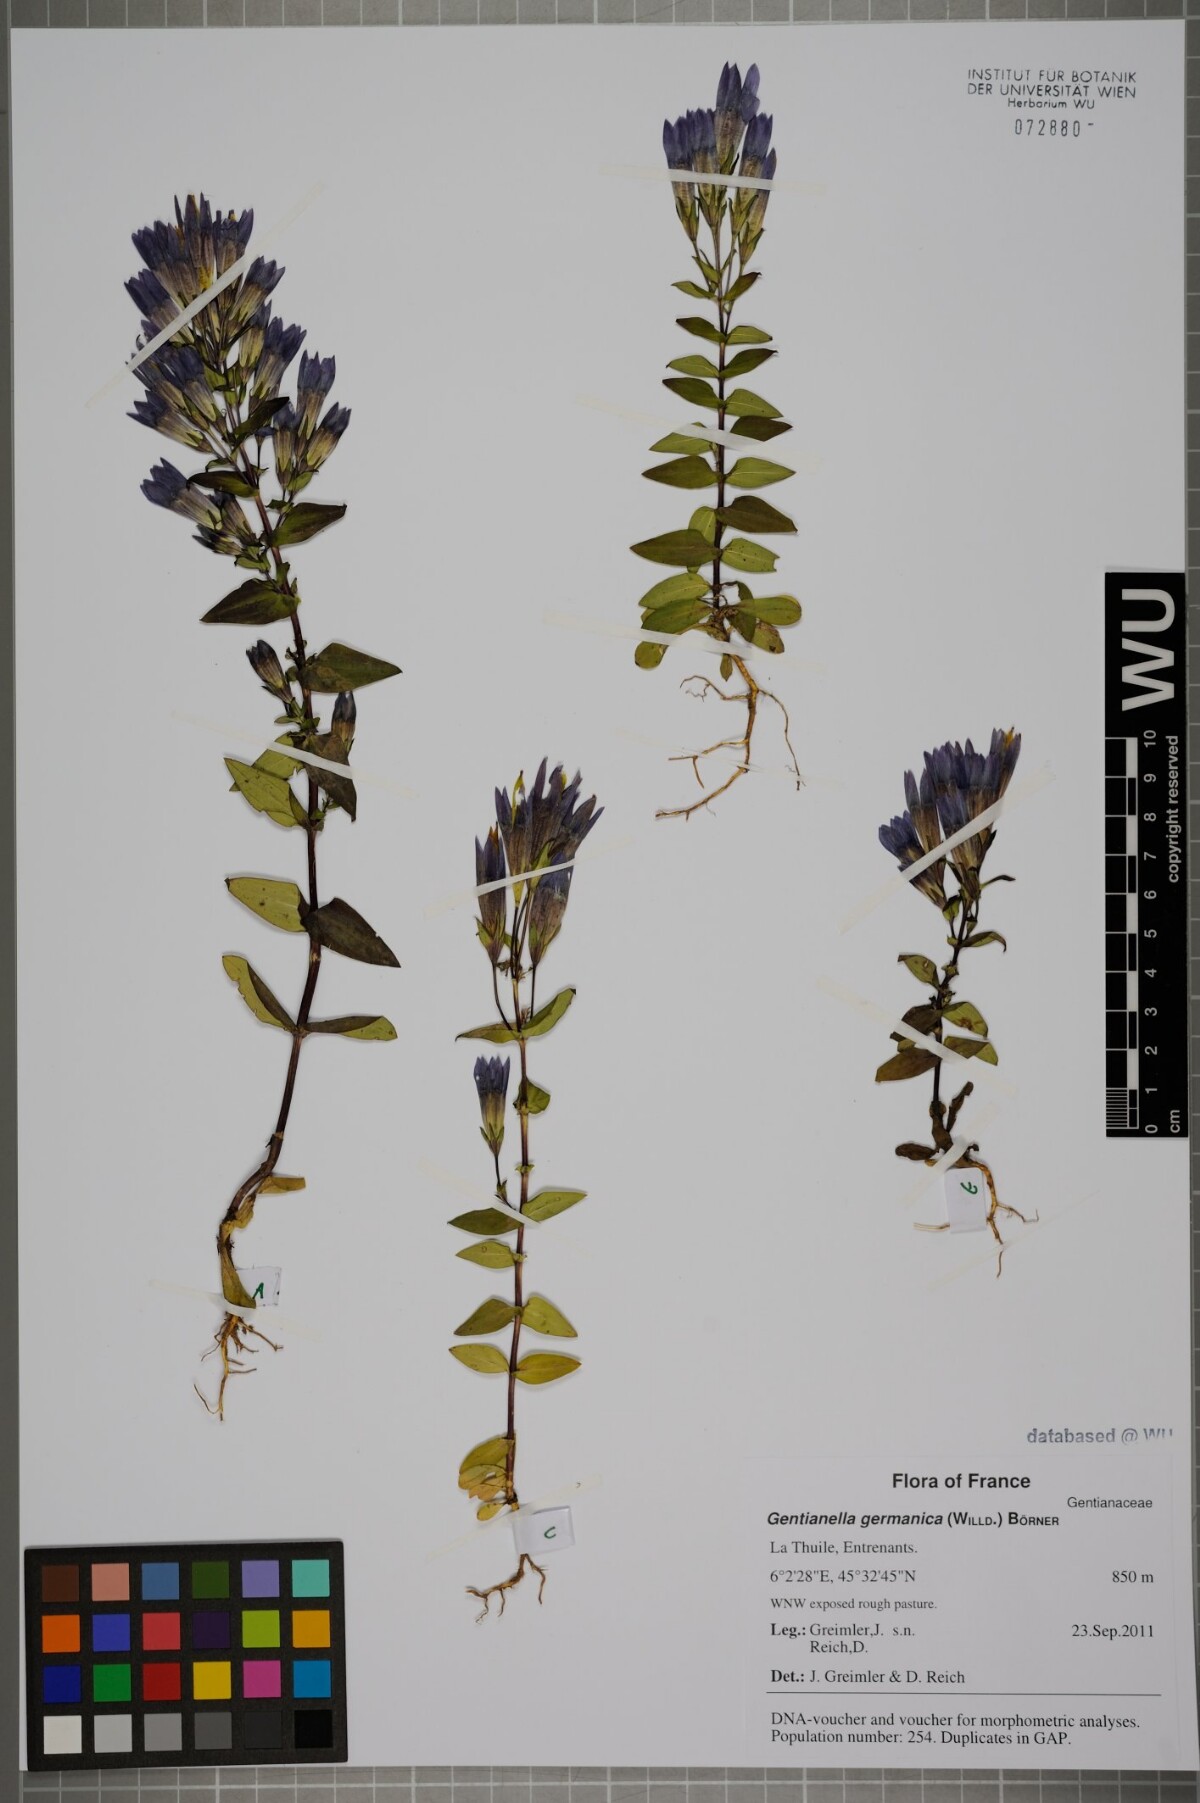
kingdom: Plantae
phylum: Tracheophyta
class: Magnoliopsida
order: Gentianales
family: Gentianaceae
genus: Gentianella
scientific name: Gentianella germanica
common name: Chiltern-gentian
